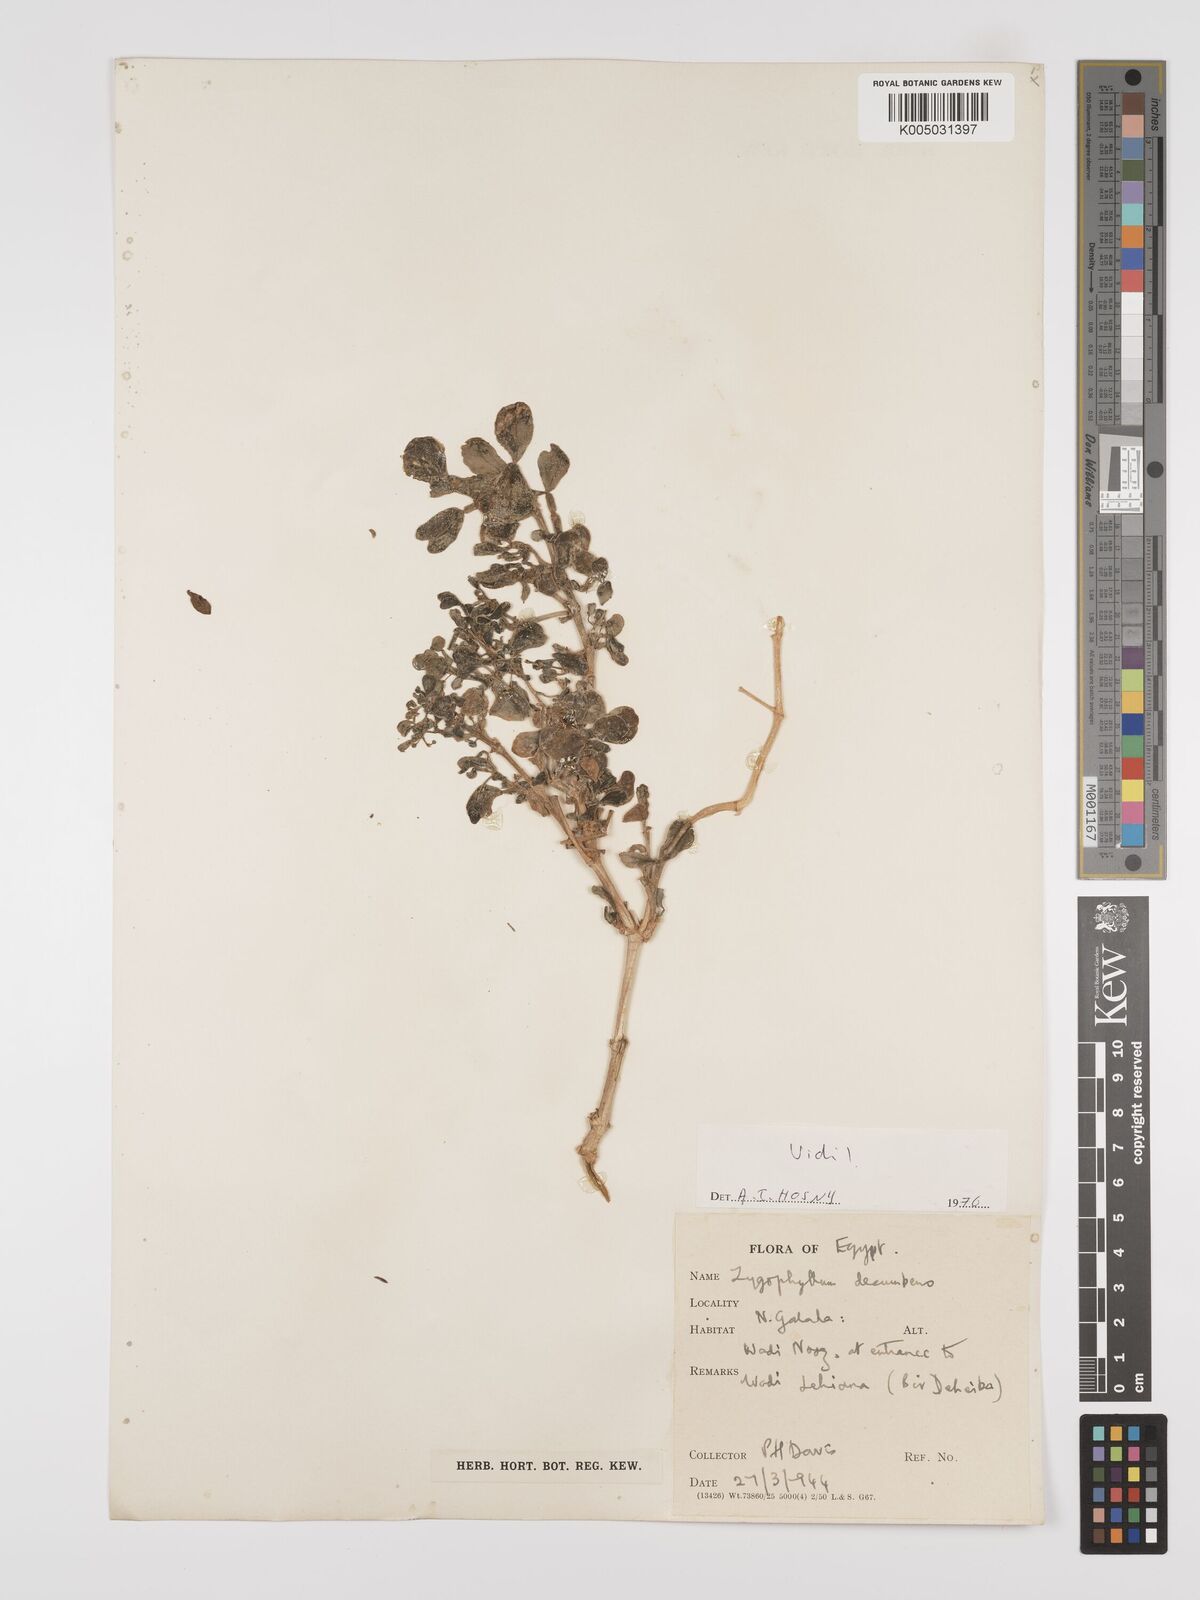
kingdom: Plantae
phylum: Tracheophyta
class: Magnoliopsida
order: Zygophyllales
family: Zygophyllaceae
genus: Tetraena
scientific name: Tetraena decumbens
